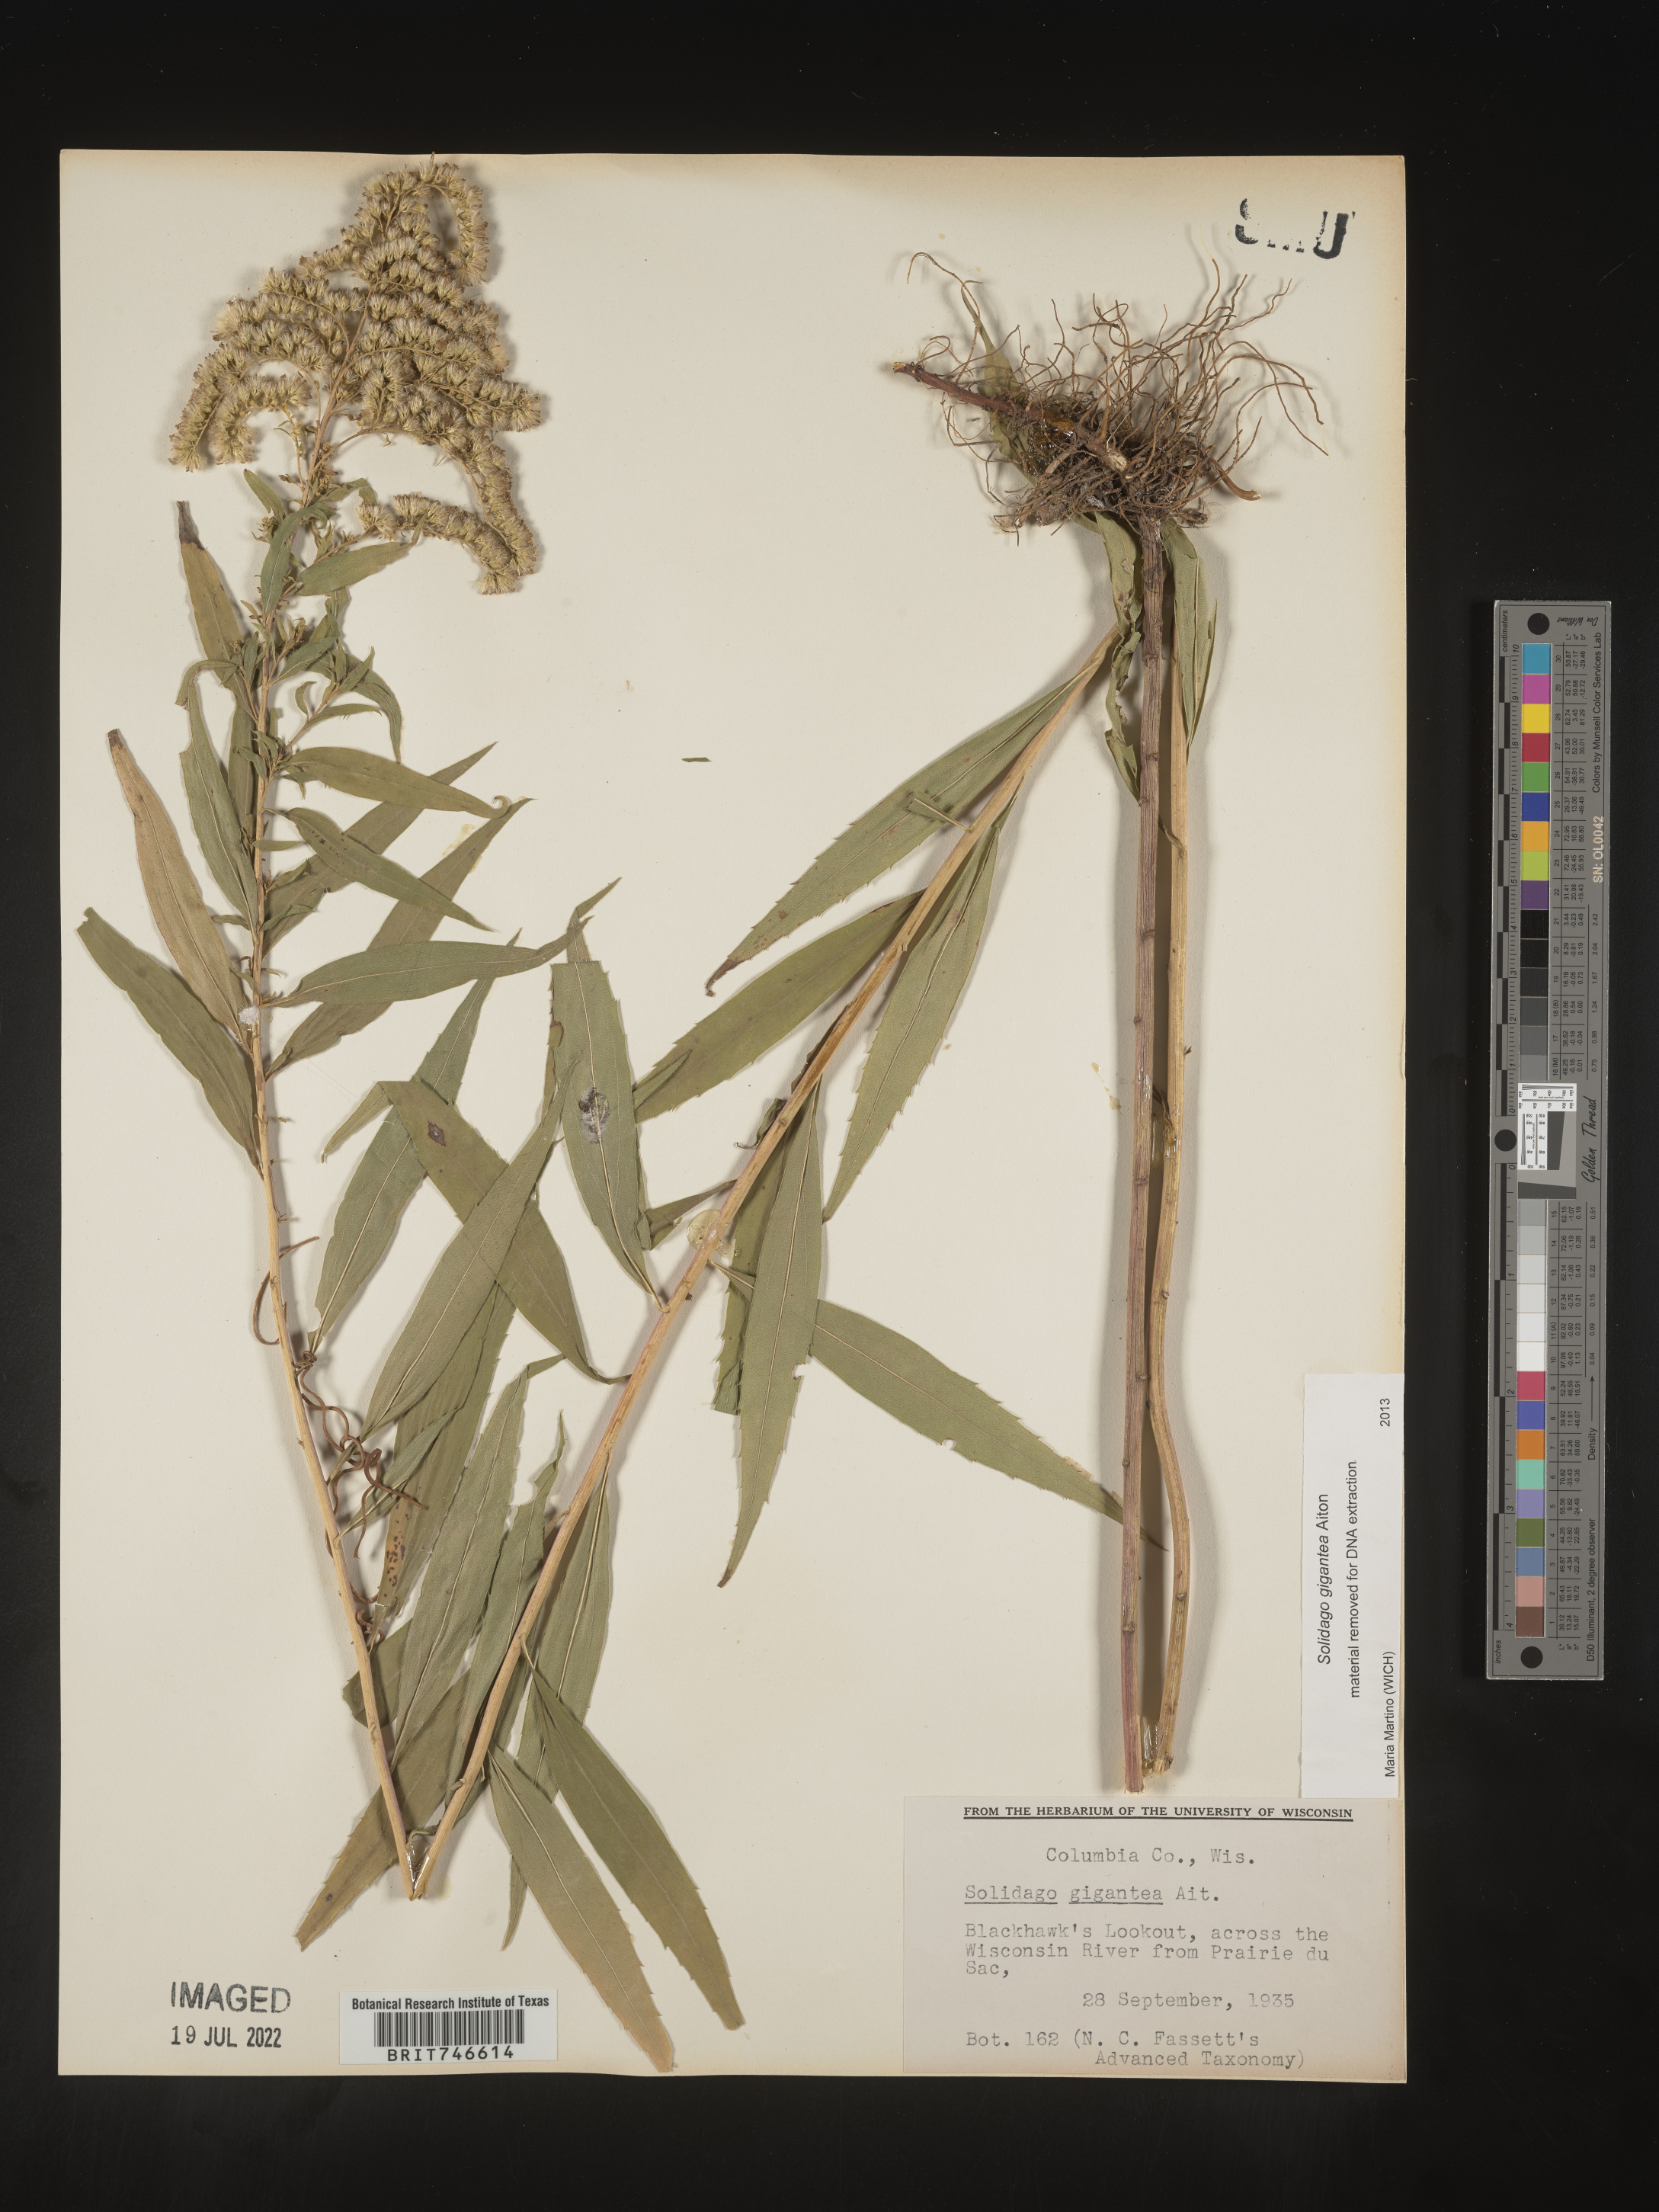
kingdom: Plantae
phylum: Tracheophyta
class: Magnoliopsida
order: Asterales
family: Asteraceae
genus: Solidago
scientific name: Solidago gigantea
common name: Giant goldenrod
